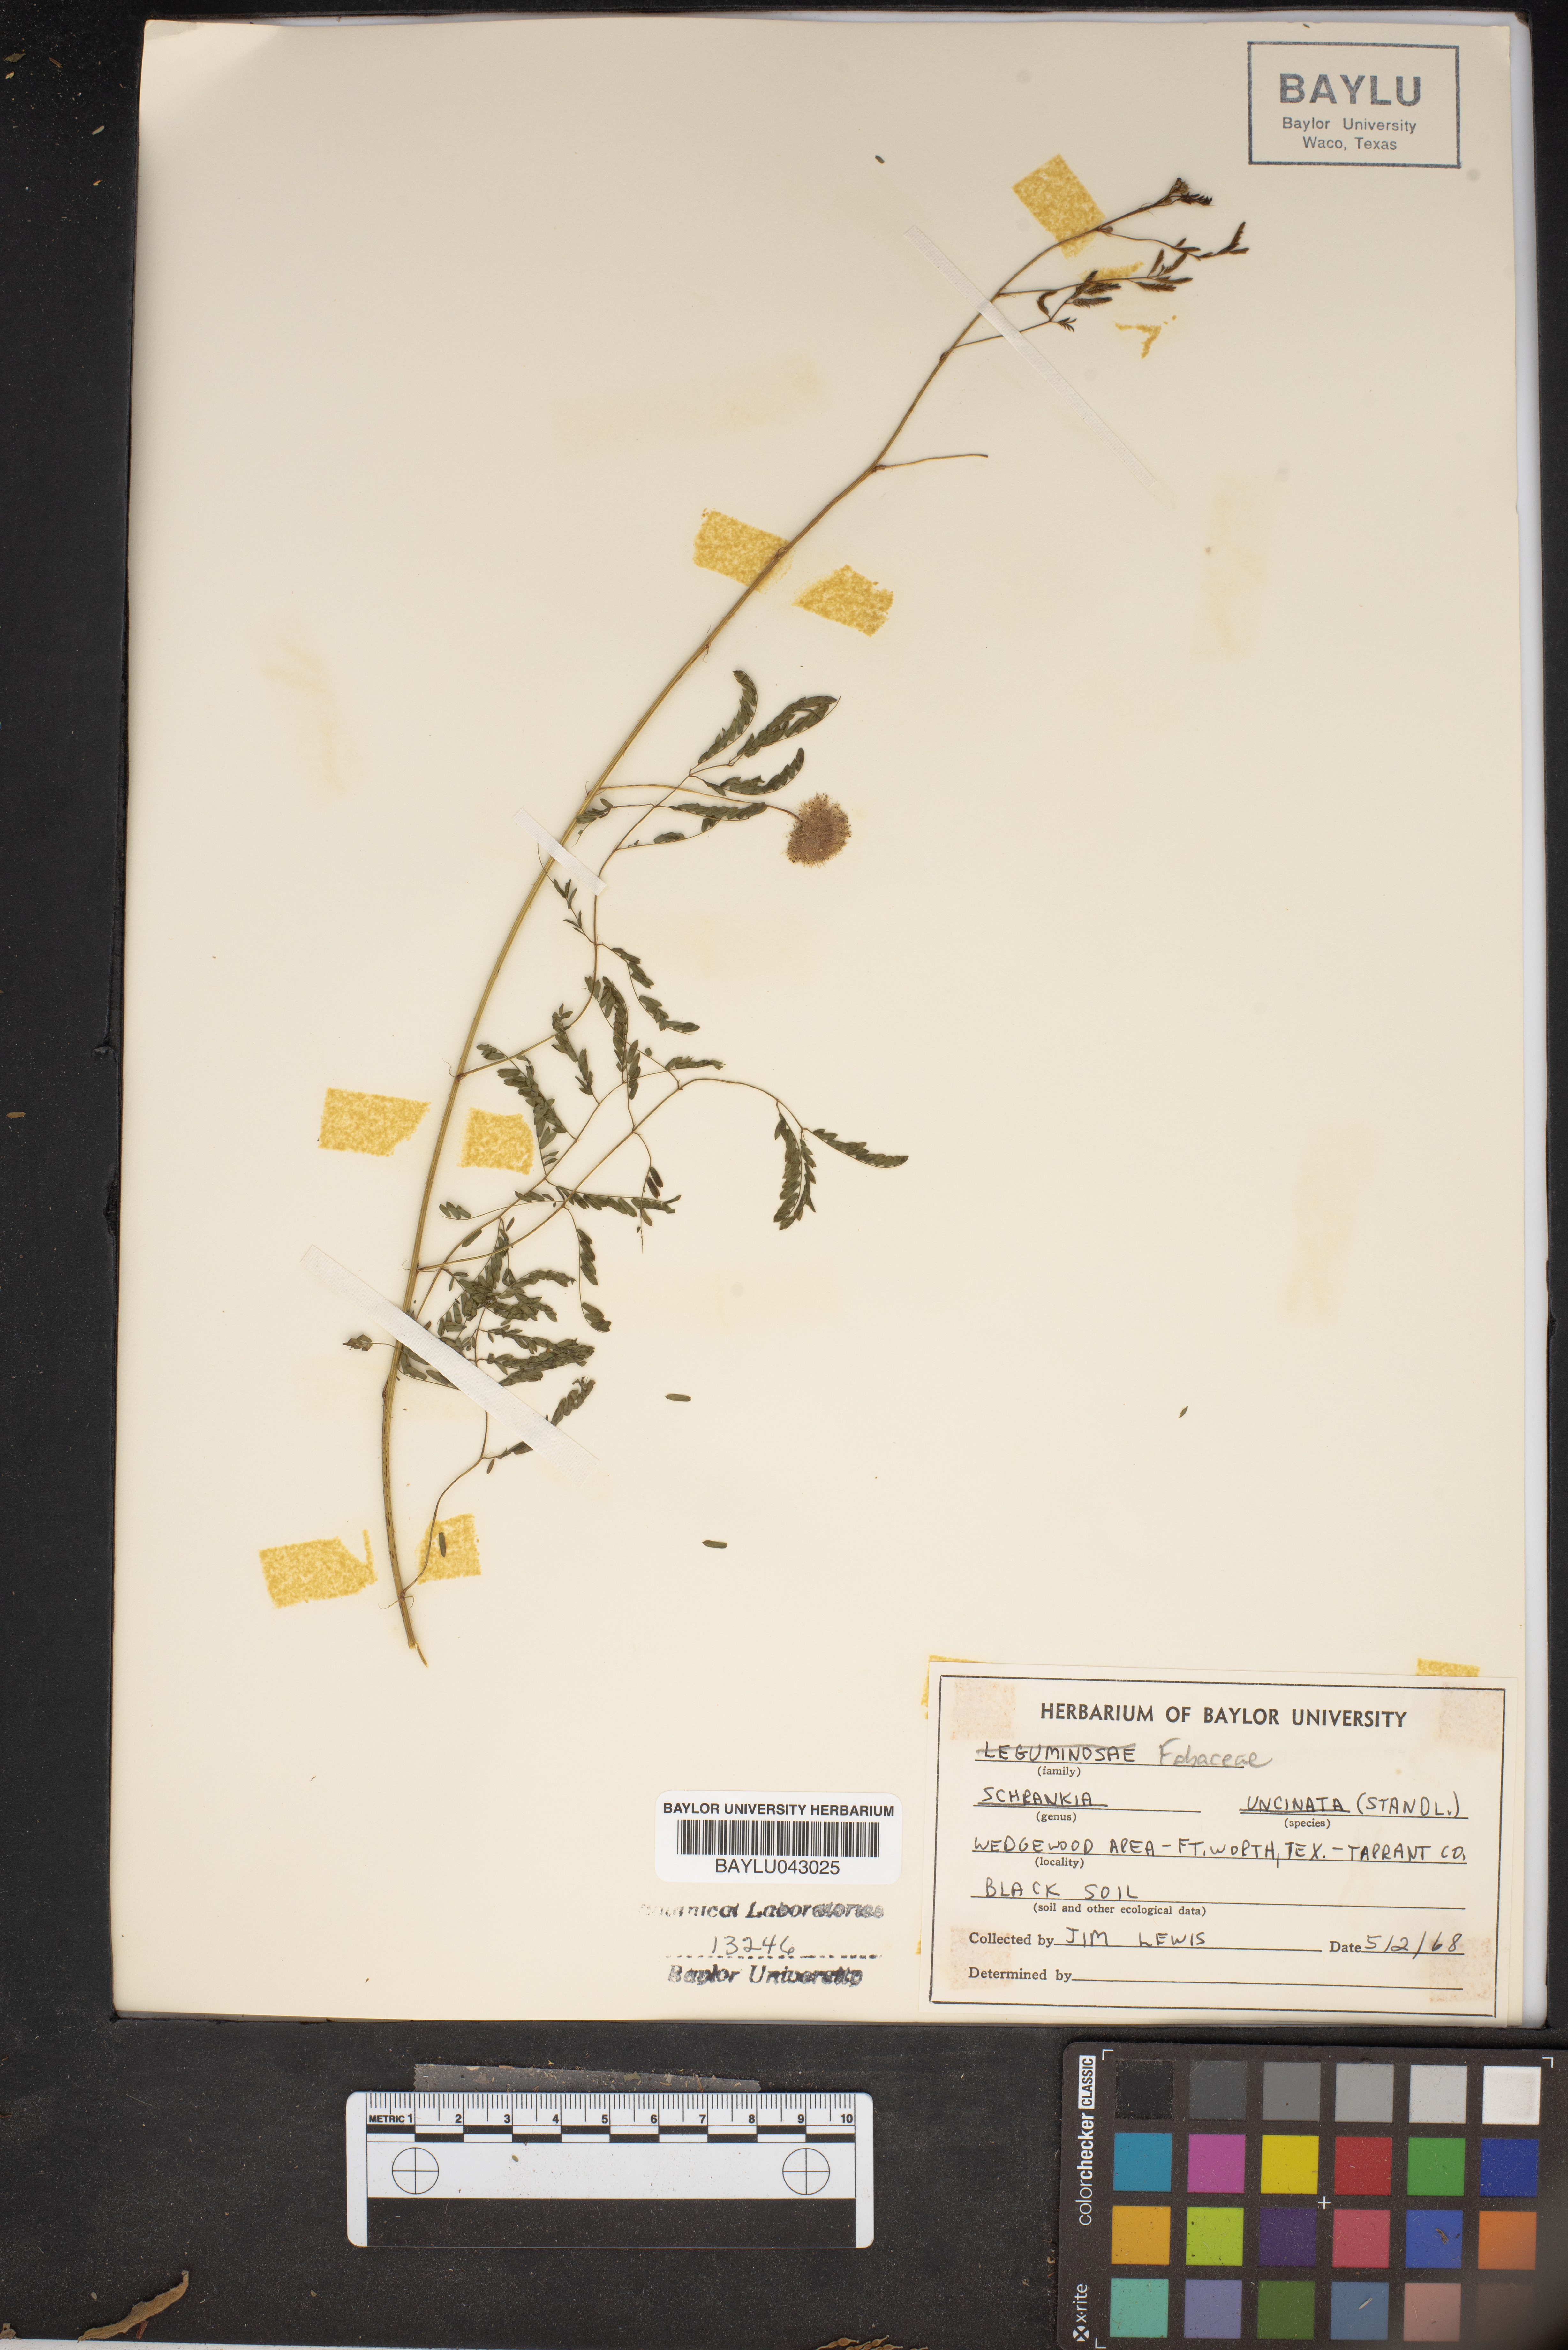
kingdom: Plantae
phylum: Tracheophyta
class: Magnoliopsida
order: Fabales
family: Fabaceae
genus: Mimosa
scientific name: Mimosa quadrivalvis
